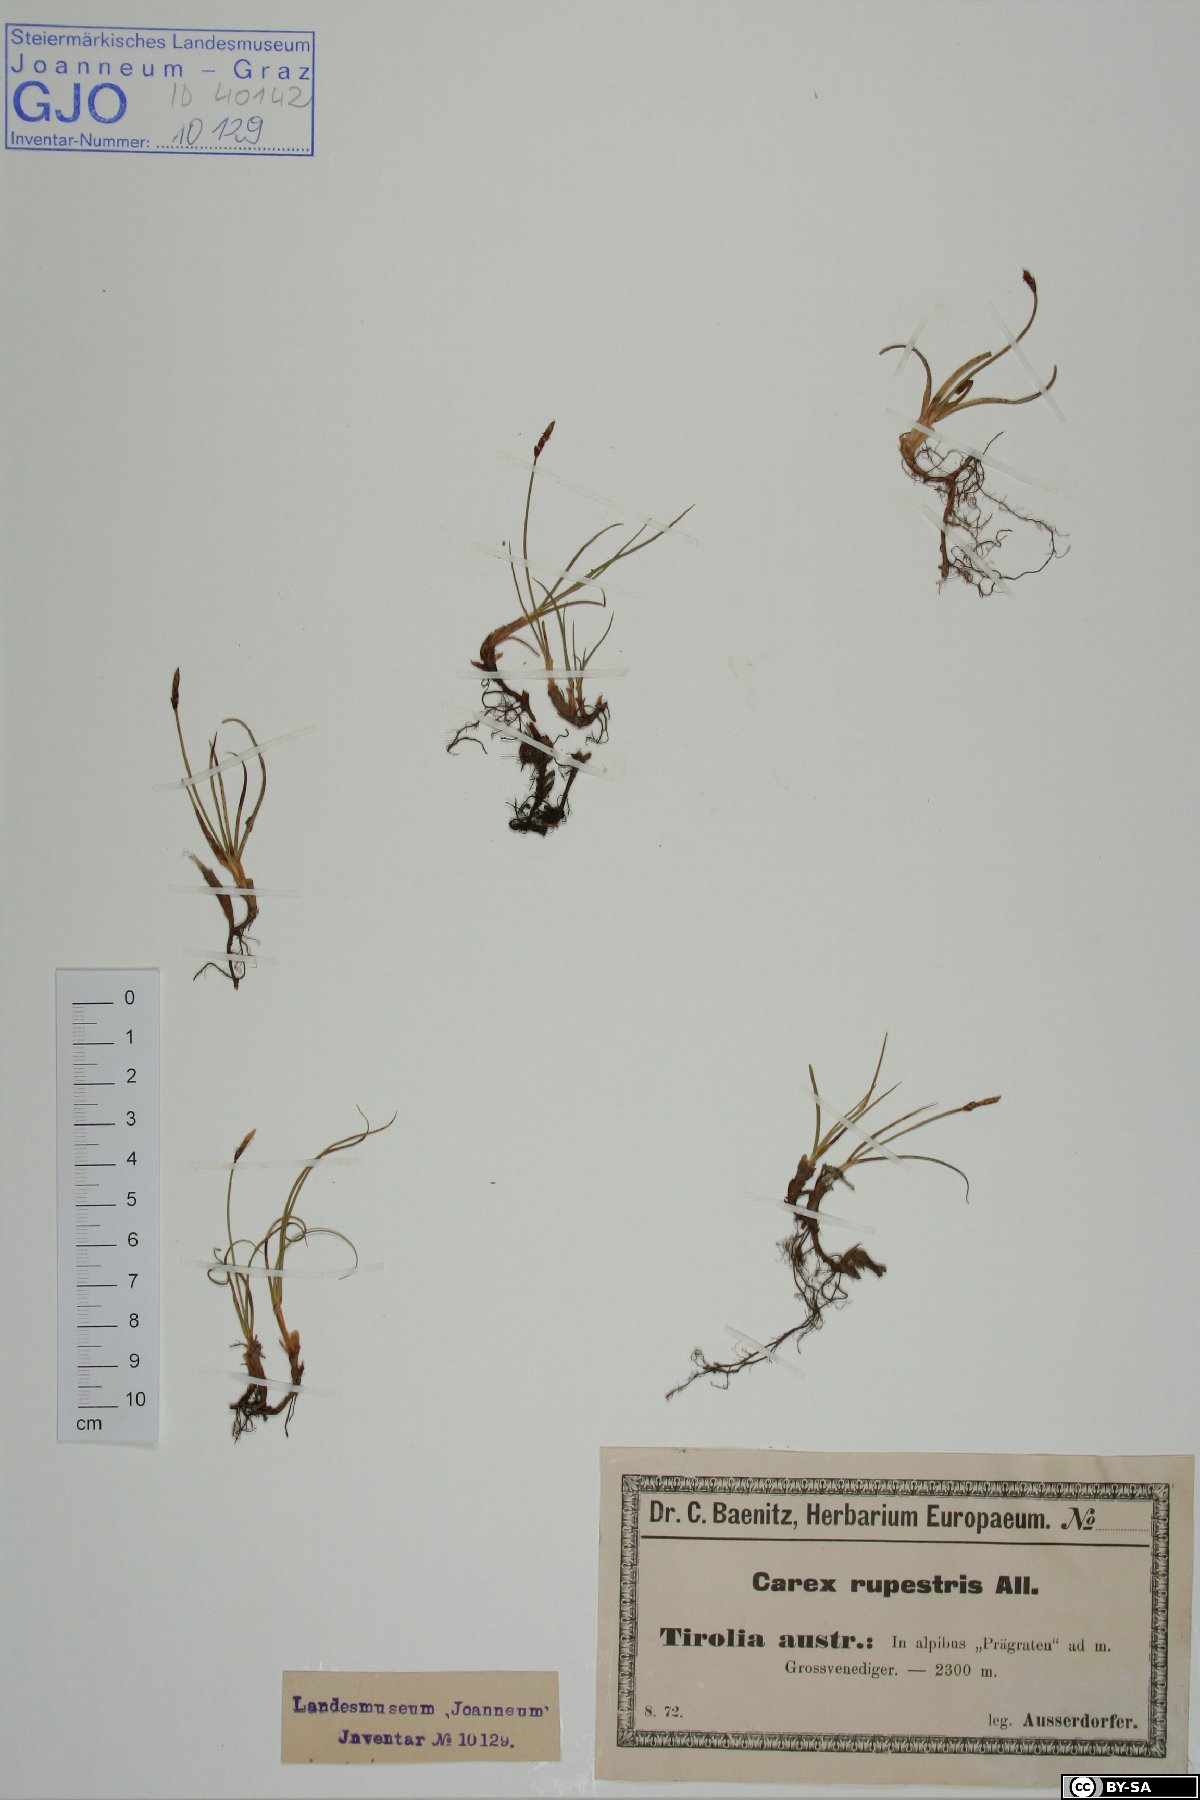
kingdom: Plantae
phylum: Tracheophyta
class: Liliopsida
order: Poales
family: Cyperaceae
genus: Carex
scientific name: Carex rupestris
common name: Rock sedge
